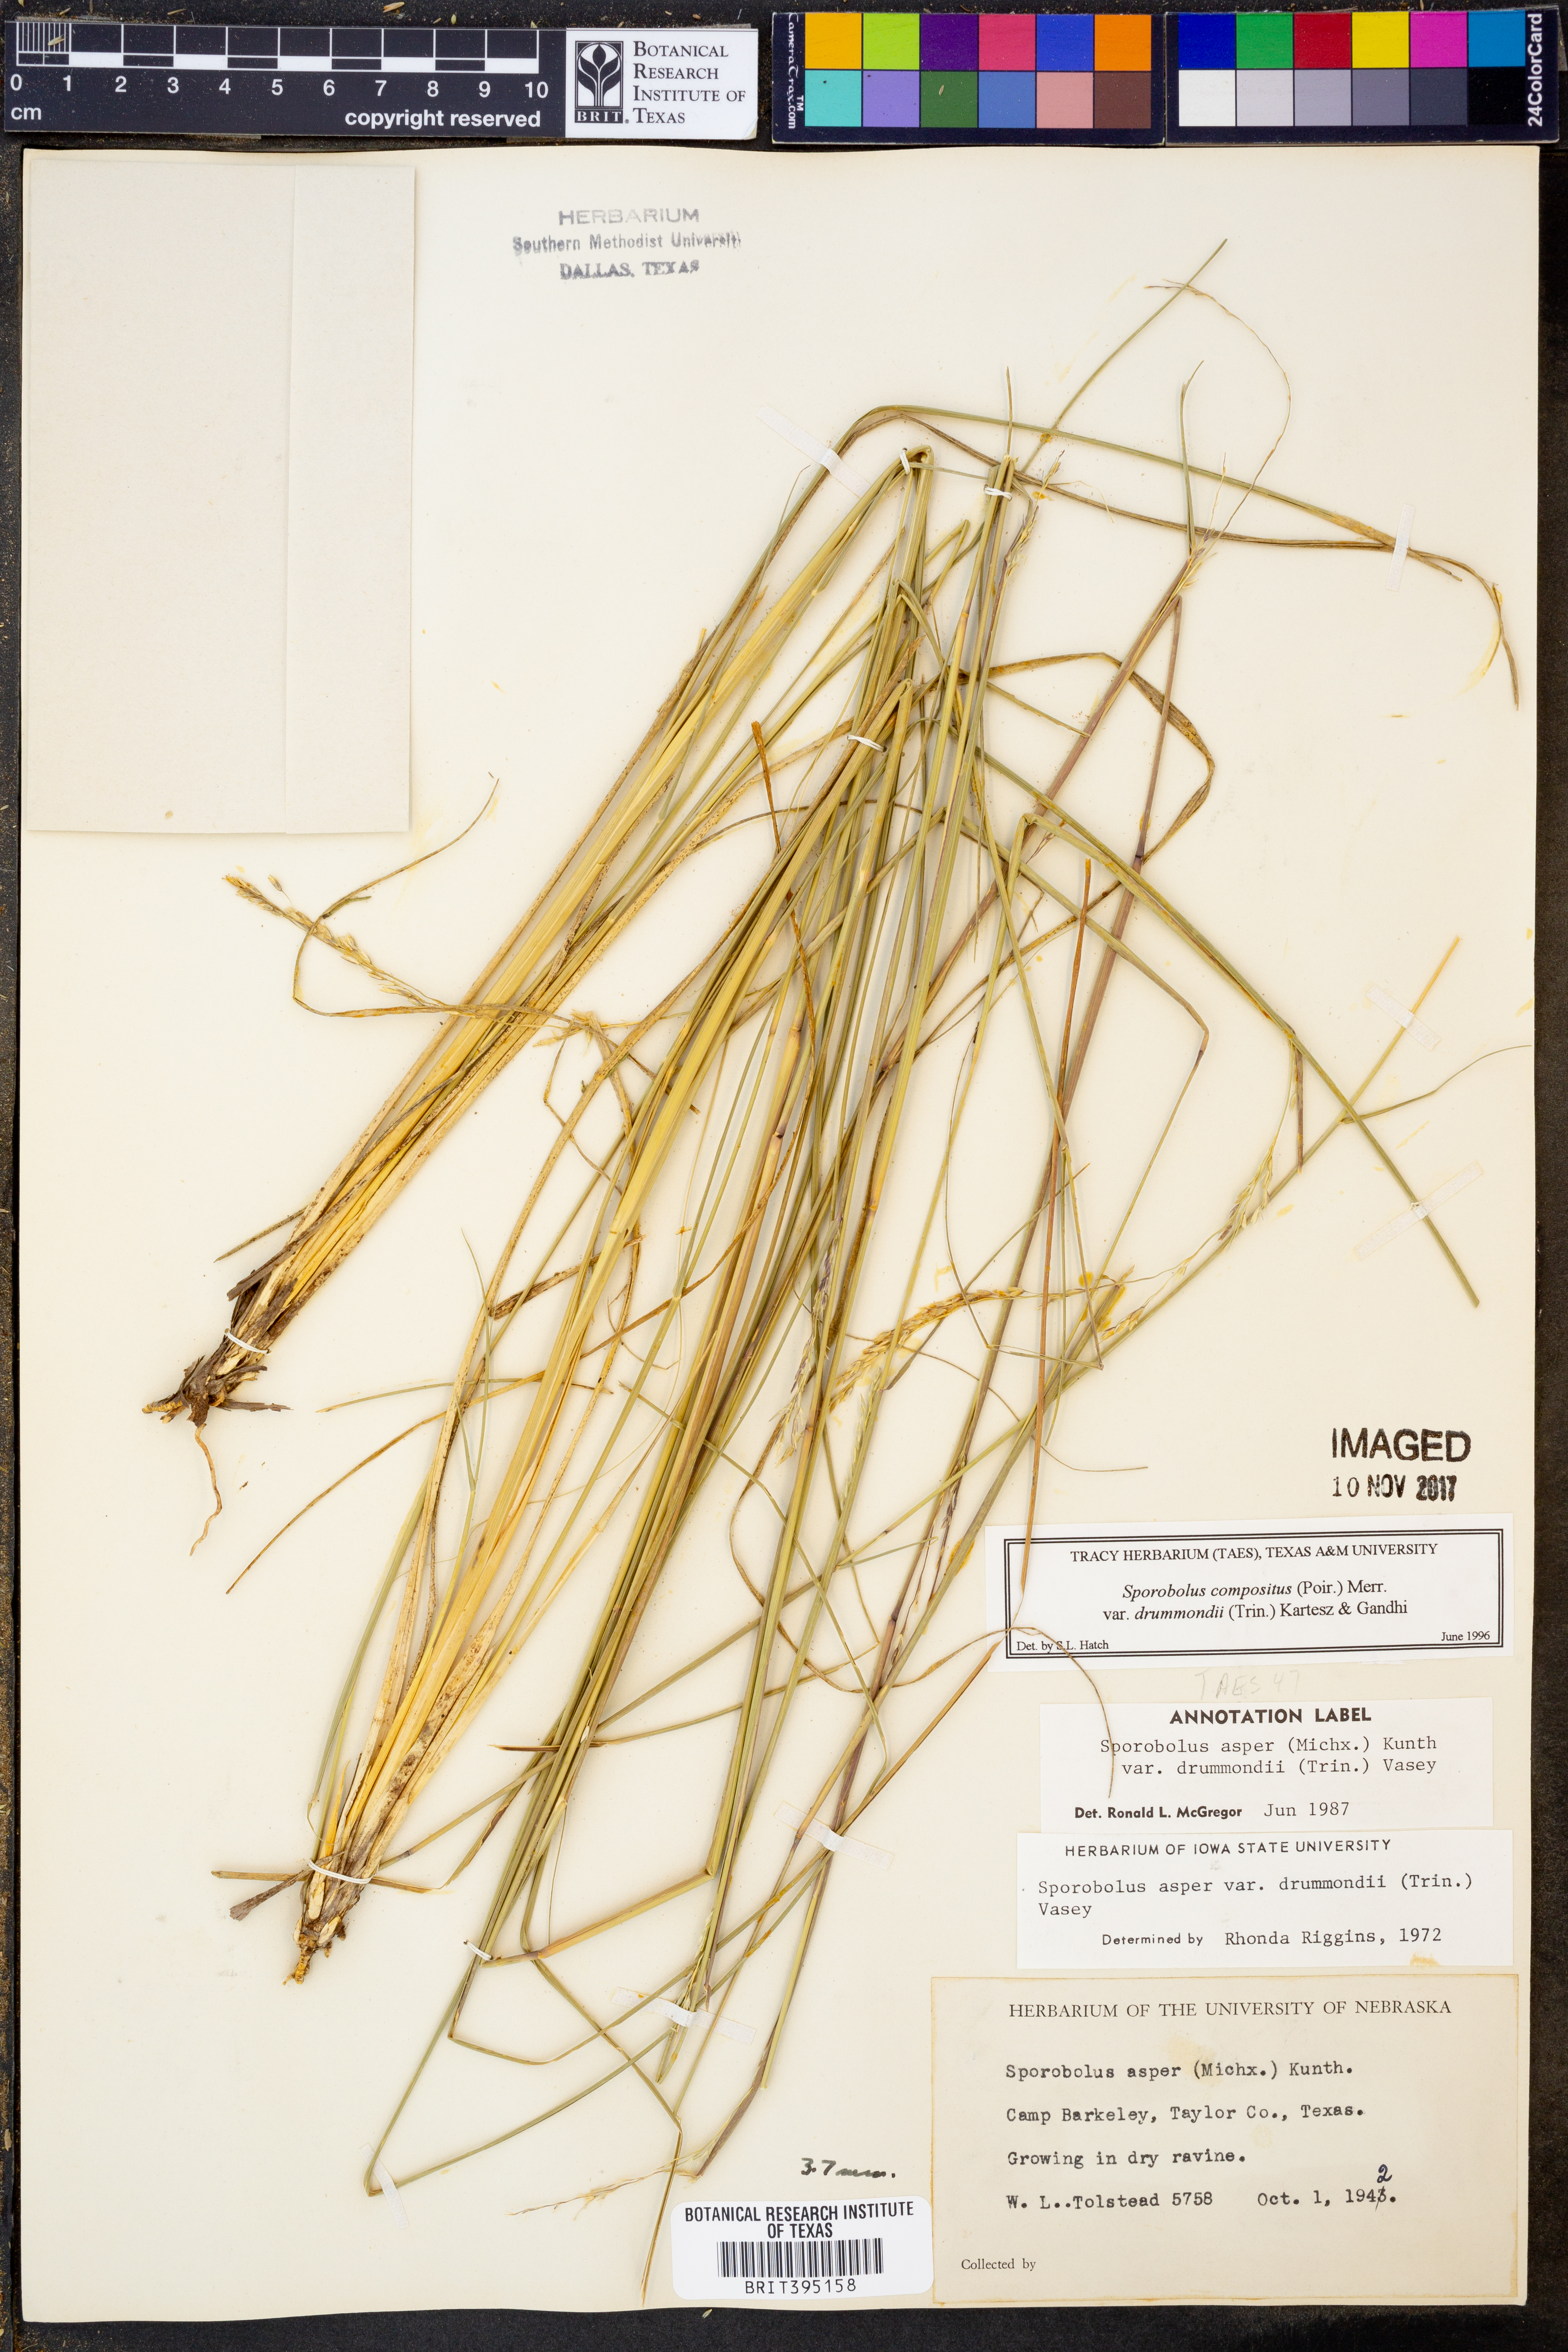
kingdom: Plantae
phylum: Tracheophyta
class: Liliopsida
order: Poales
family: Poaceae
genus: Sporobolus
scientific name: Sporobolus compositus
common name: Rough dropseed
